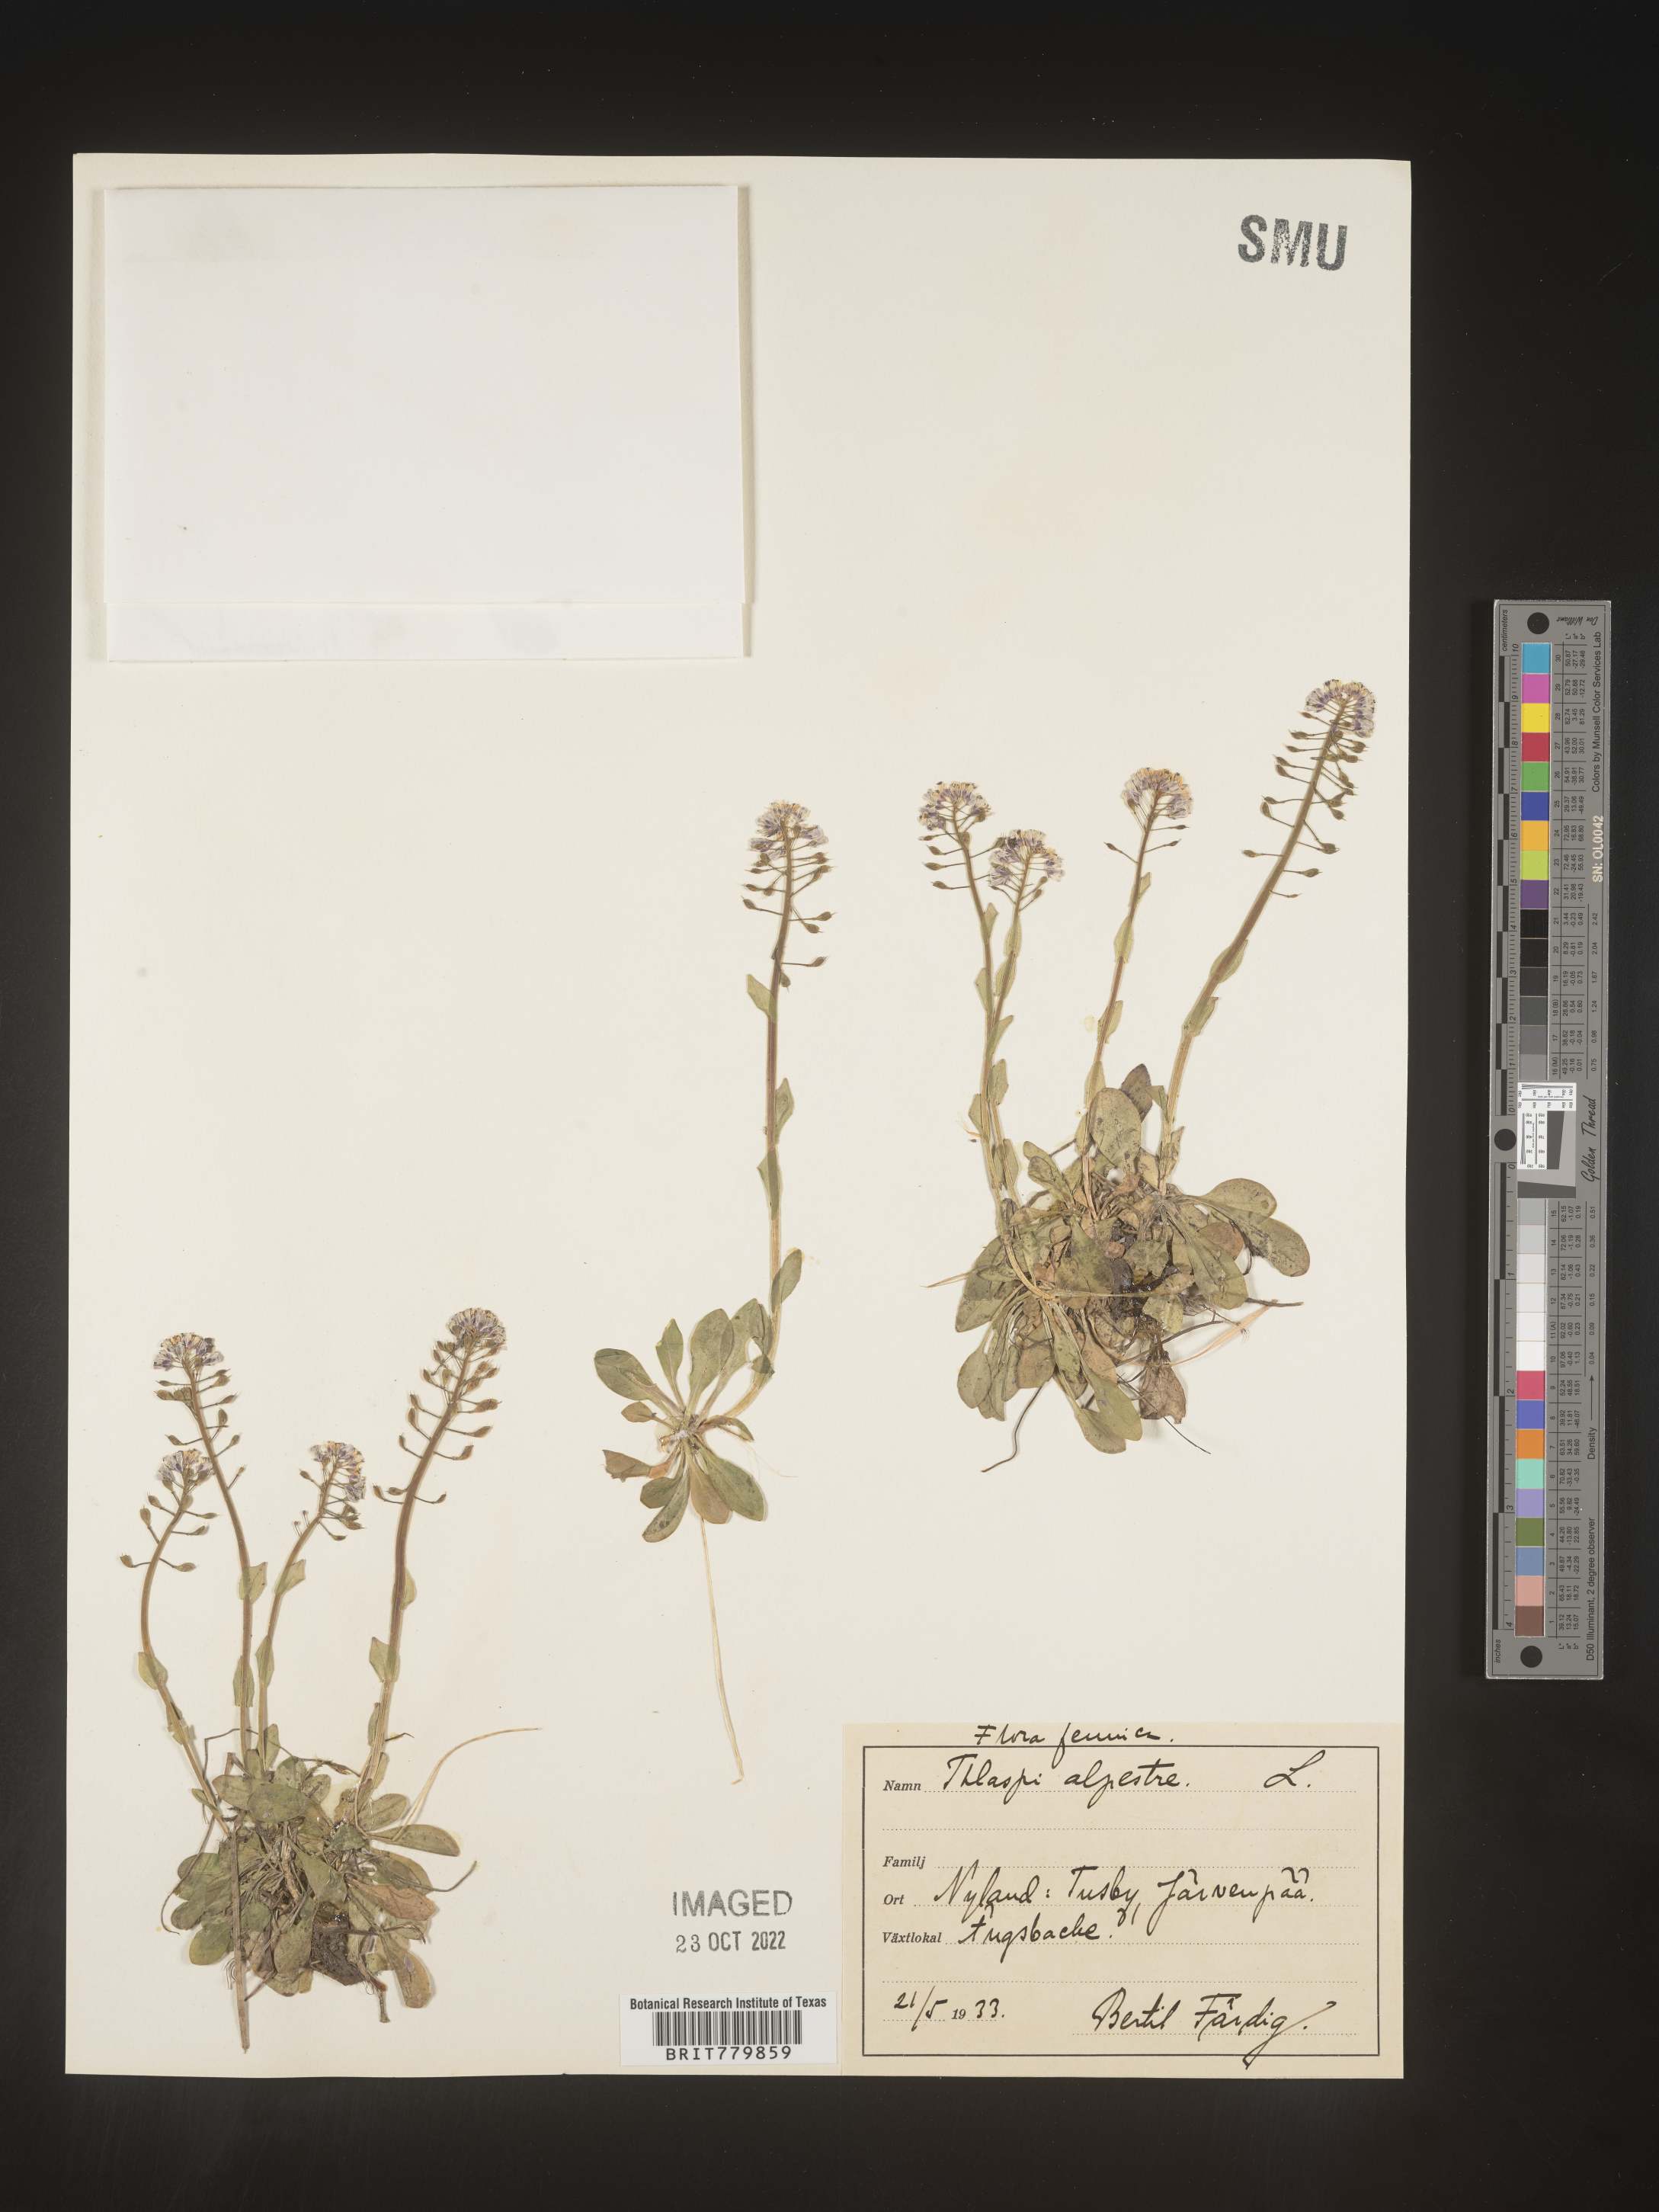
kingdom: Plantae
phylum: Tracheophyta
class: Magnoliopsida
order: Brassicales
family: Brassicaceae
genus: Thlaspi
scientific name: Thlaspi
